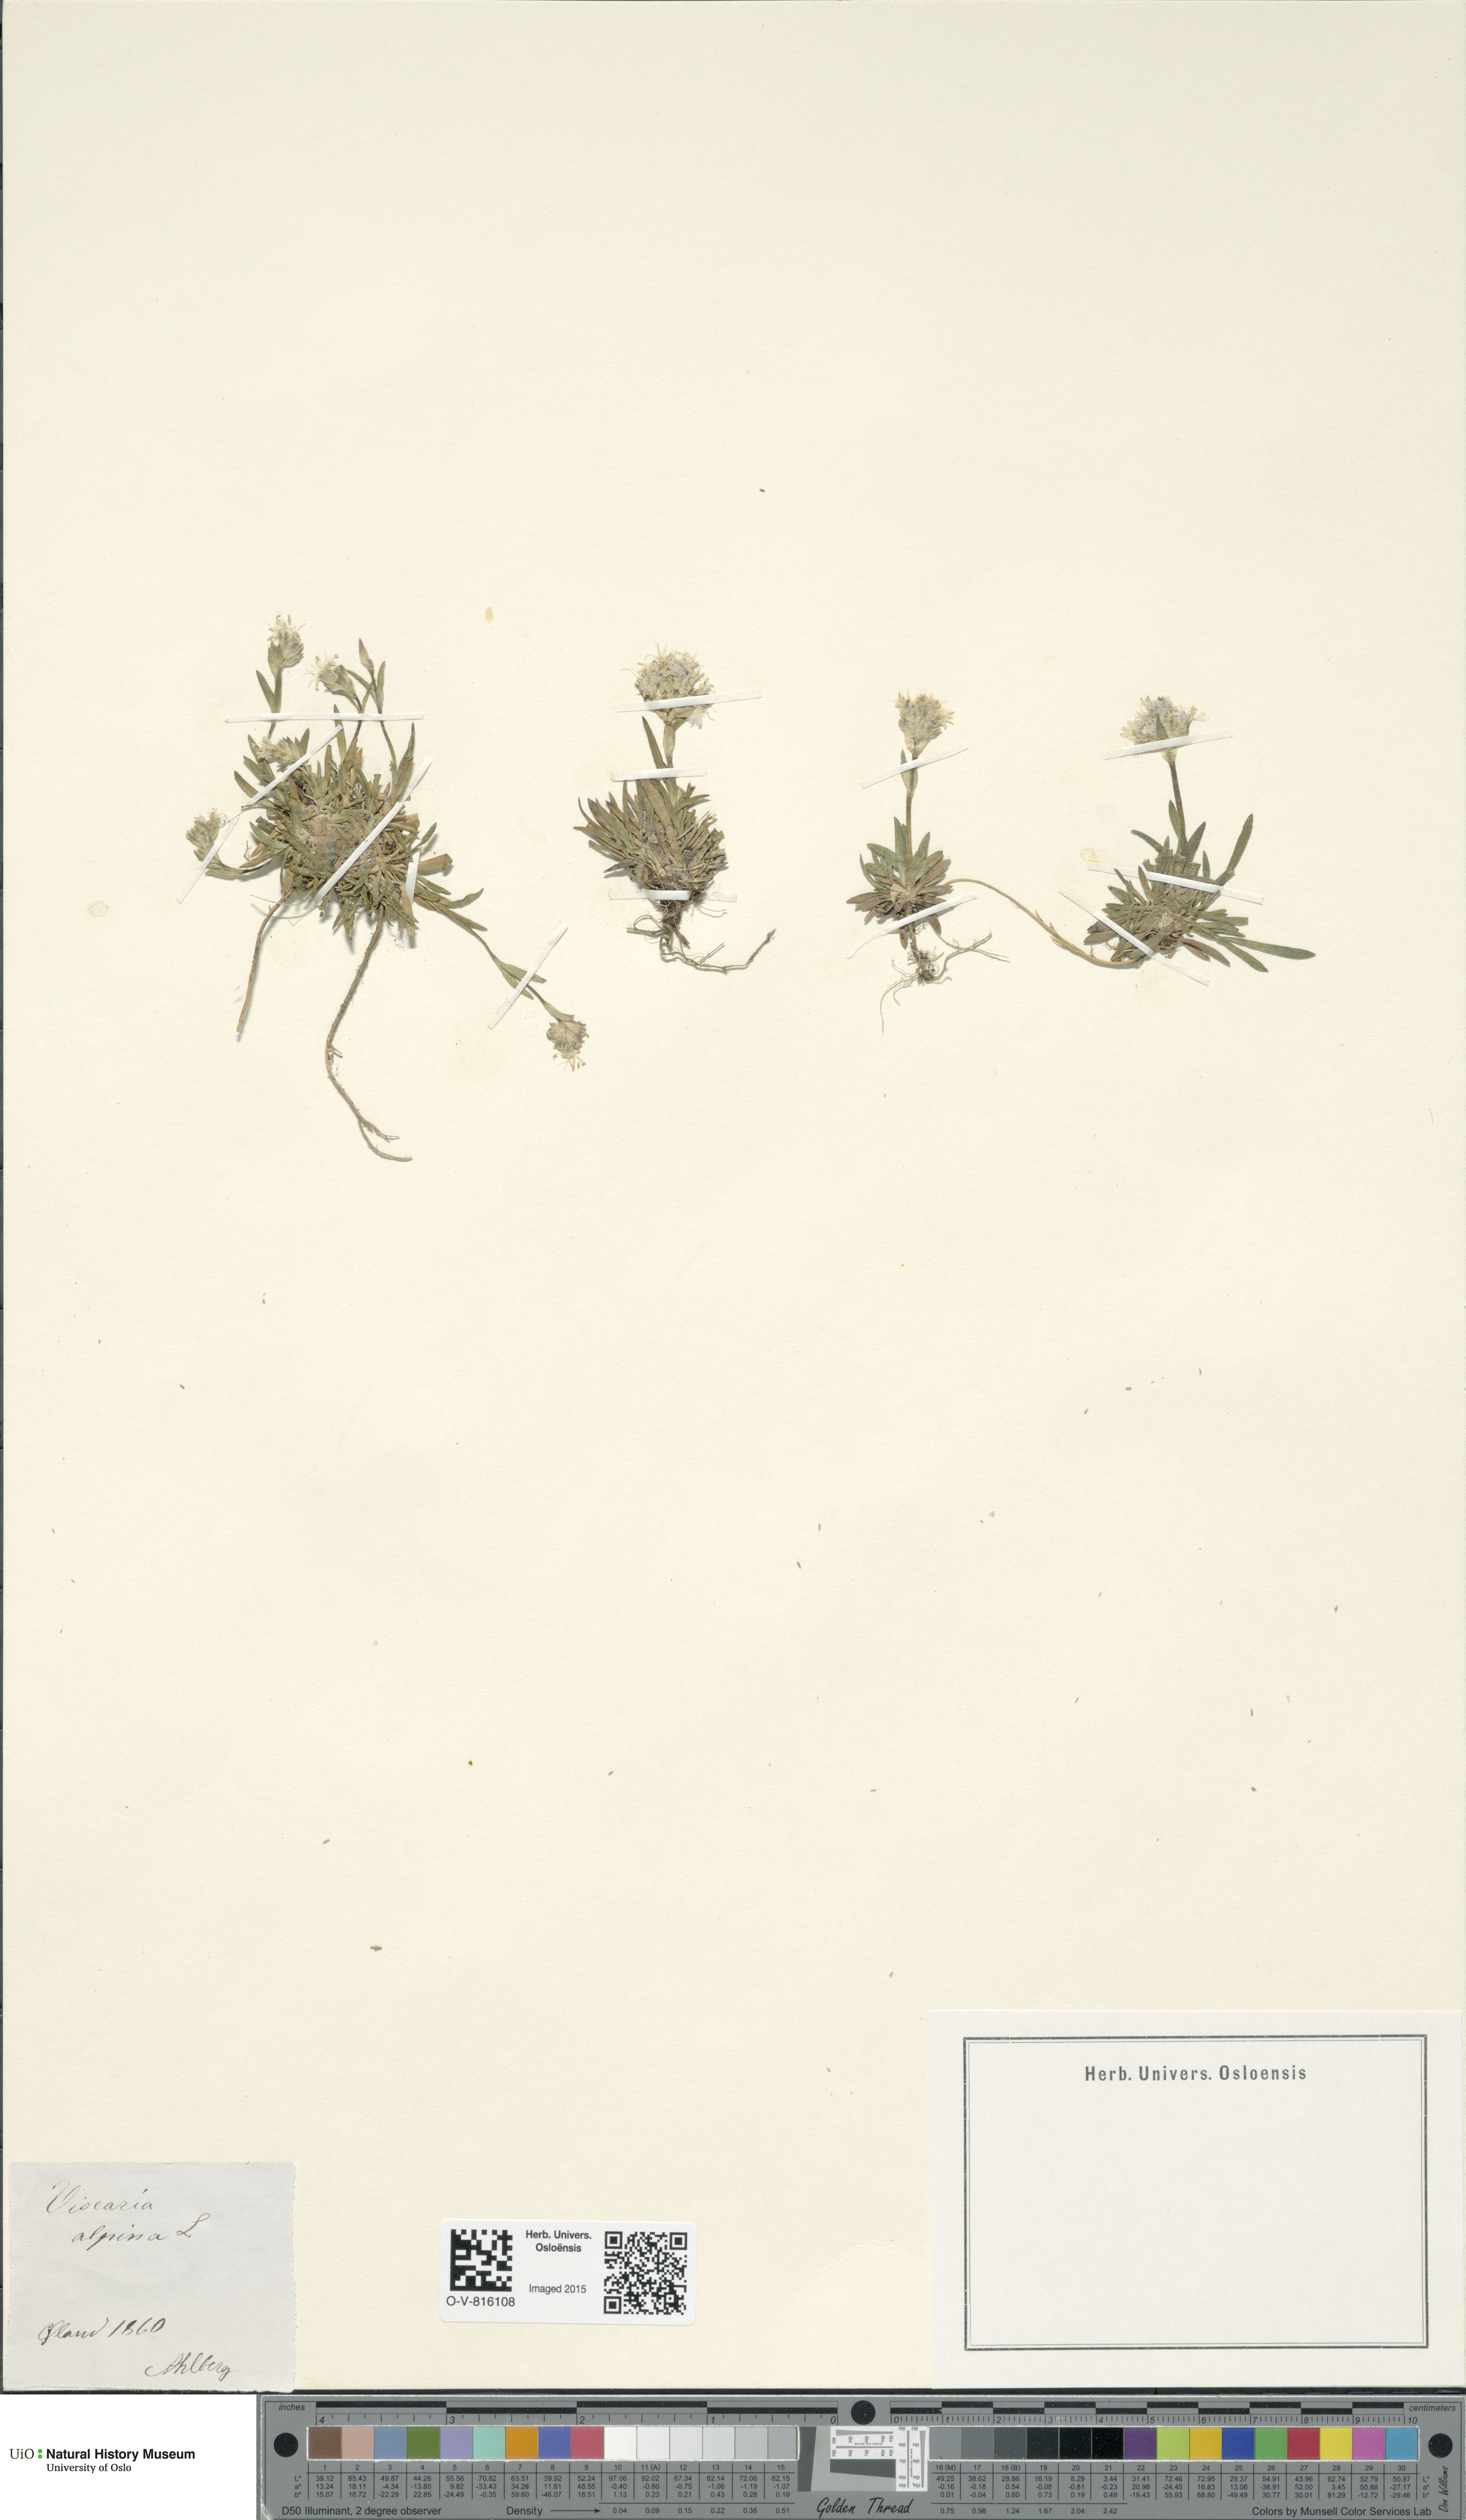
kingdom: Plantae
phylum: Tracheophyta
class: Magnoliopsida
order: Caryophyllales
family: Caryophyllaceae
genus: Viscaria
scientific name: Viscaria alpina
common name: Alpine campion
